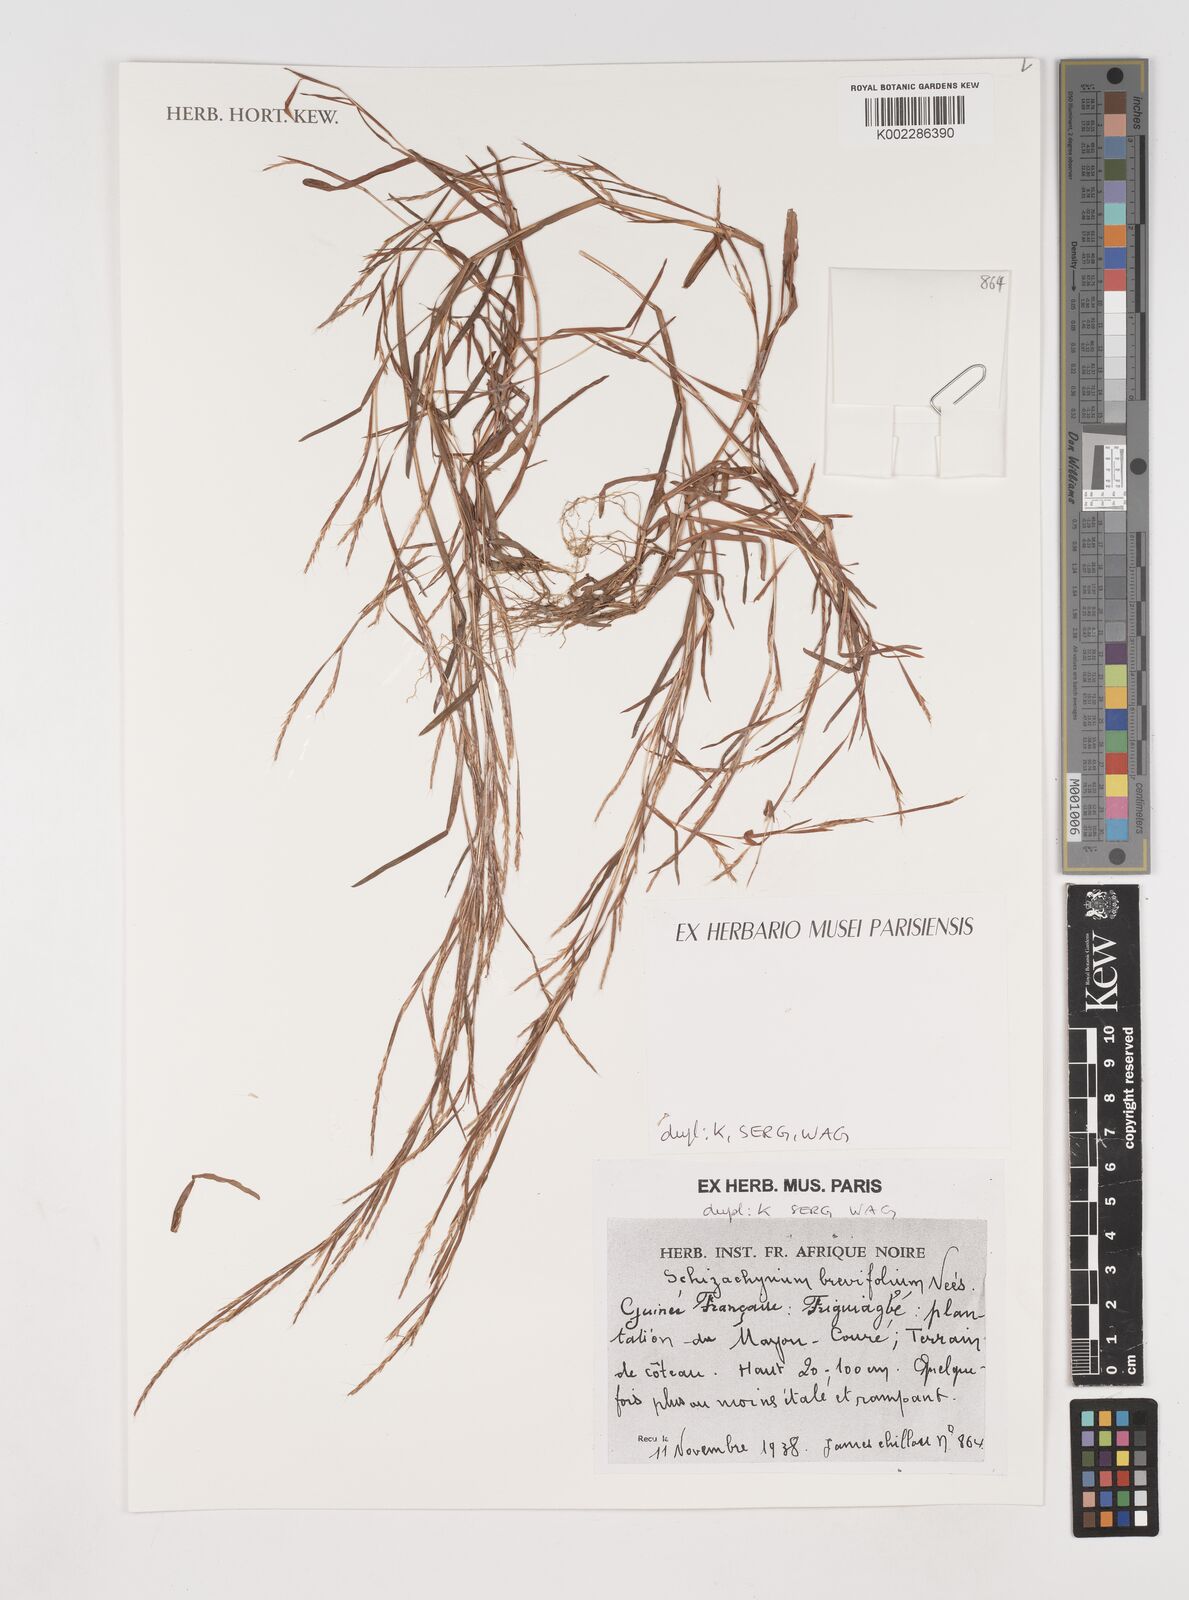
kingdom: Plantae
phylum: Tracheophyta
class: Liliopsida
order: Poales
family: Poaceae
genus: Schizachyrium
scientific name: Schizachyrium brevifolium
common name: Serillo dulce
